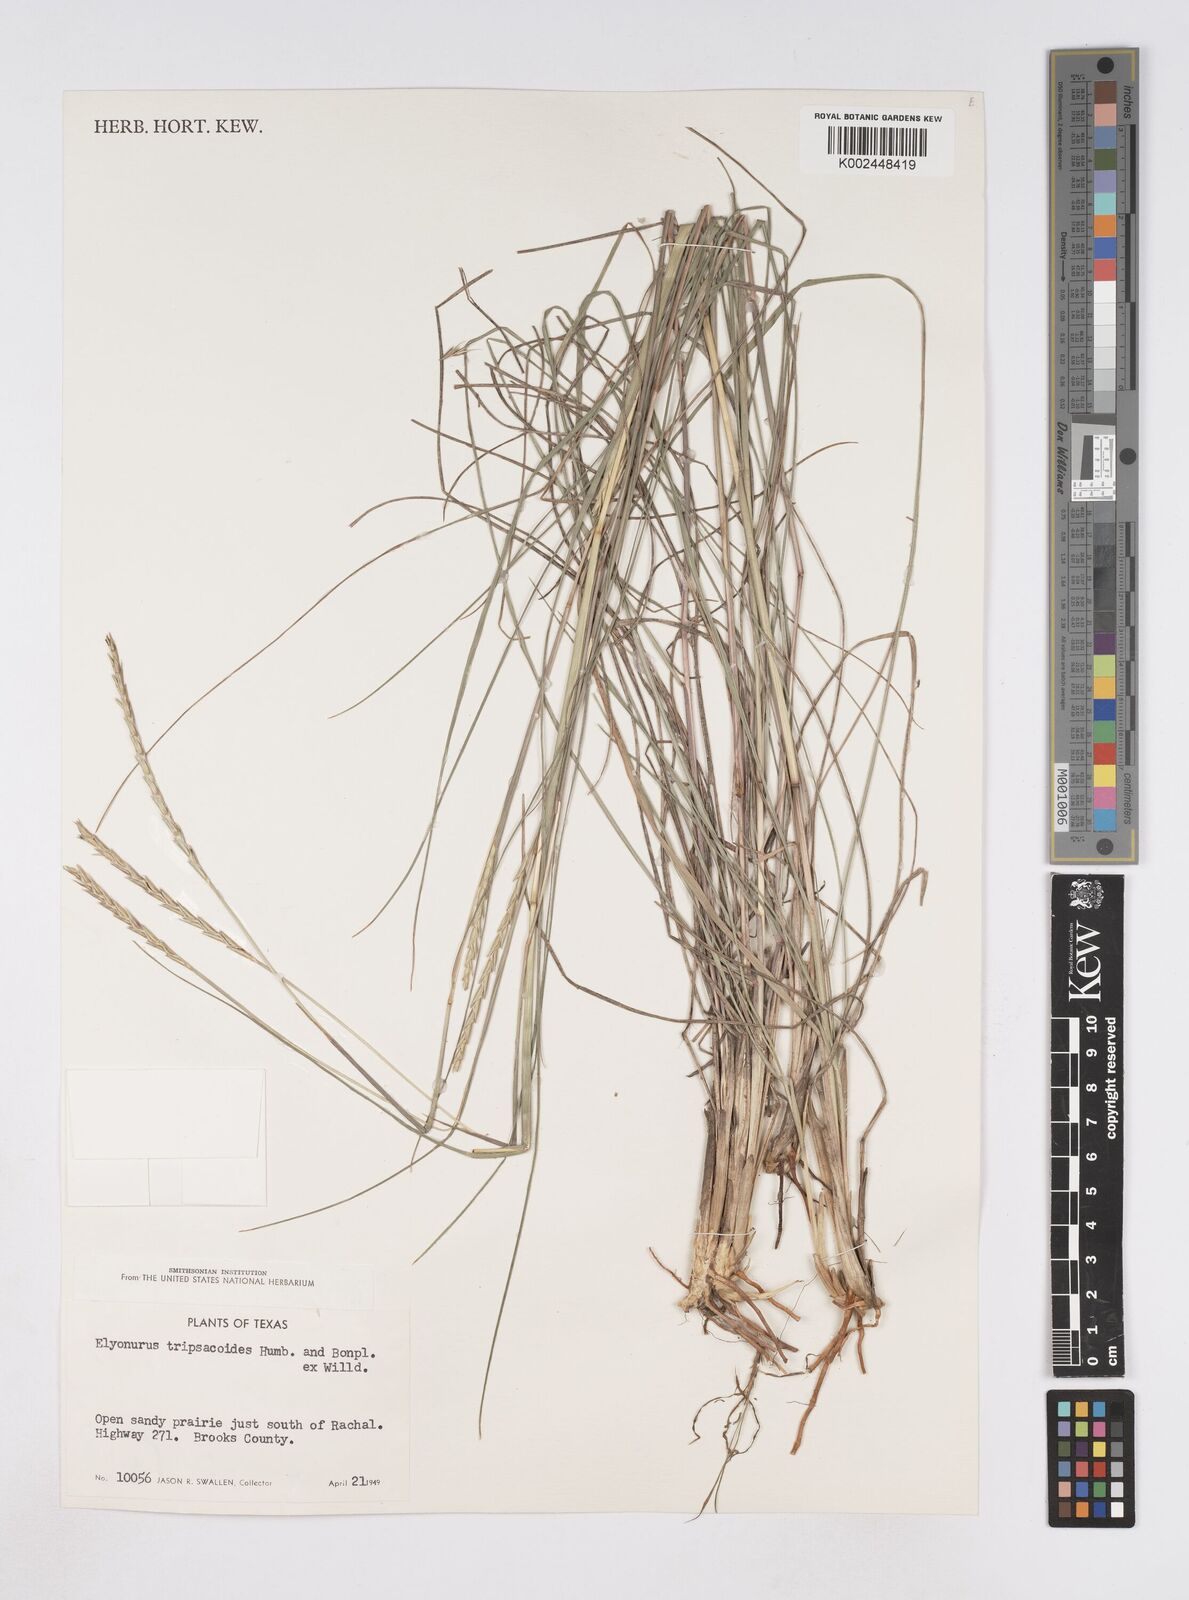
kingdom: Plantae
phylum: Tracheophyta
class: Liliopsida
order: Poales
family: Poaceae
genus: Elionurus
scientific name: Elionurus tripsacoides
